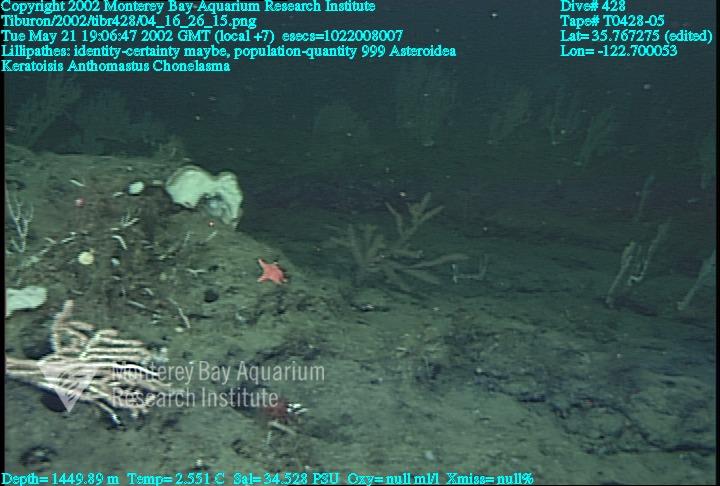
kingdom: Animalia
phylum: Porifera
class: Hexactinellida
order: Sceptrulophora
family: Euretidae
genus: Chonelasma
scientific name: Chonelasma
